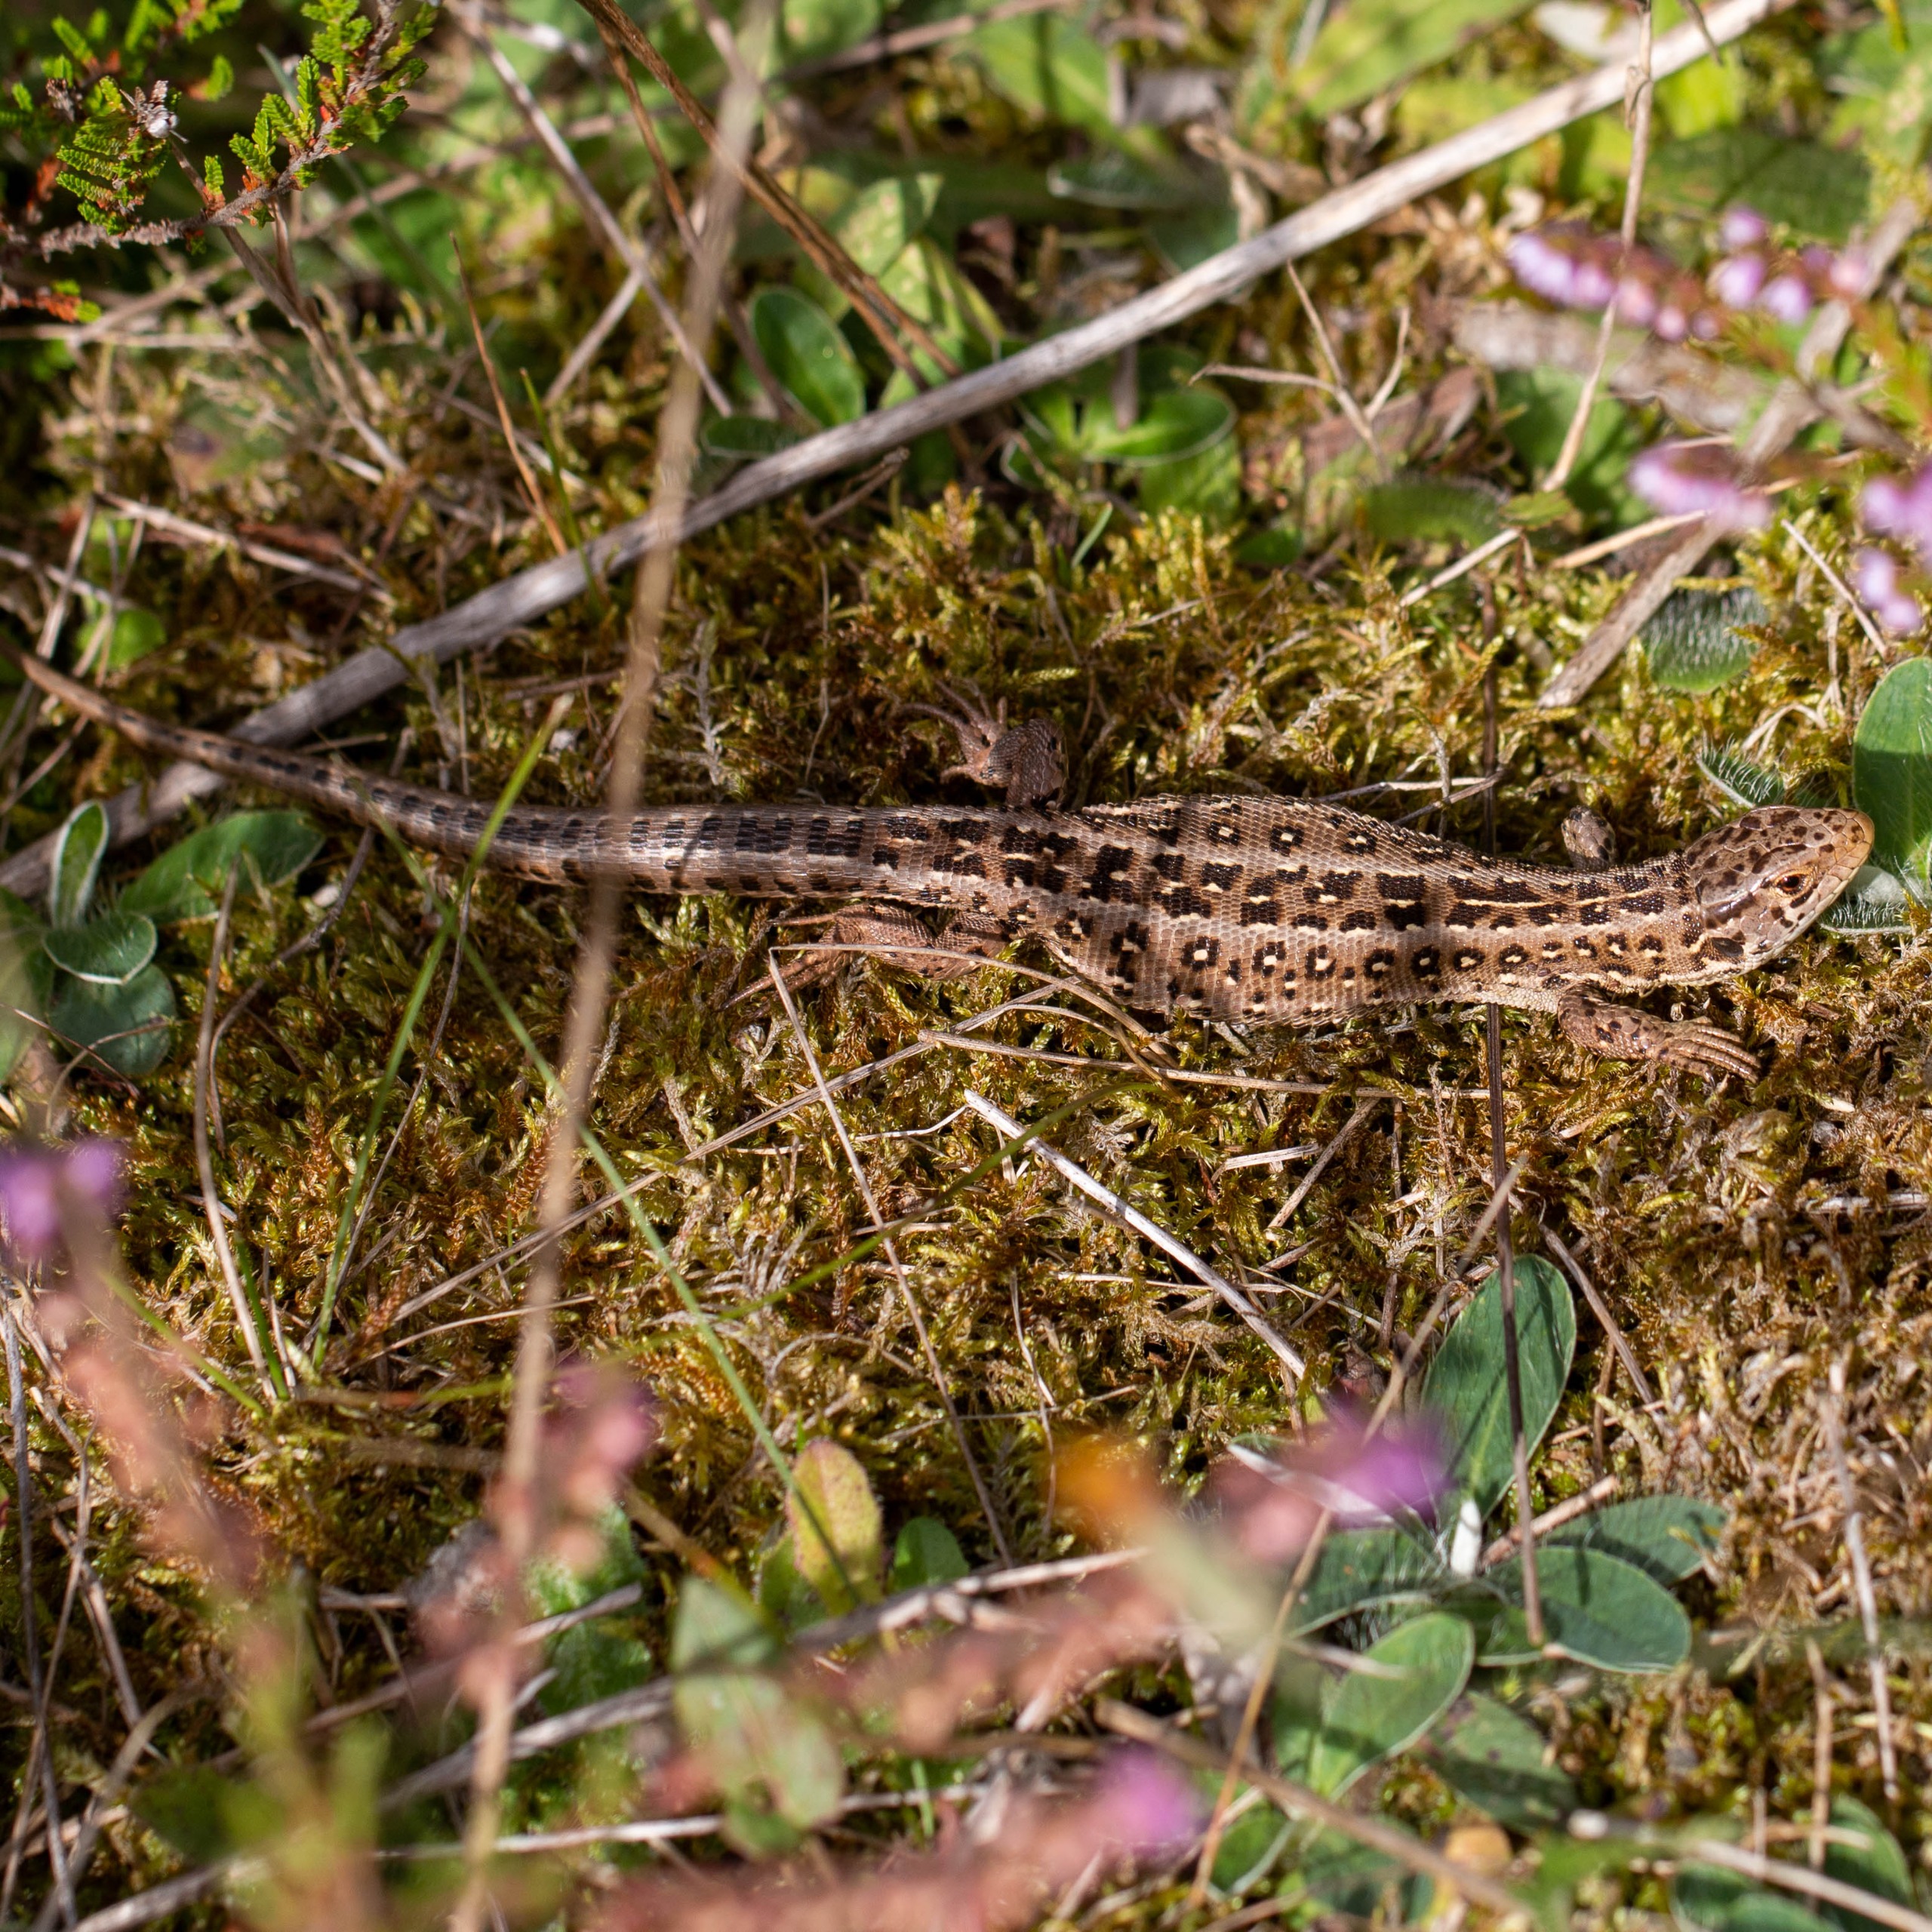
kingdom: Animalia
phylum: Chordata
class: Squamata
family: Lacertidae
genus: Lacerta
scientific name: Lacerta agilis
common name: Markfirben
